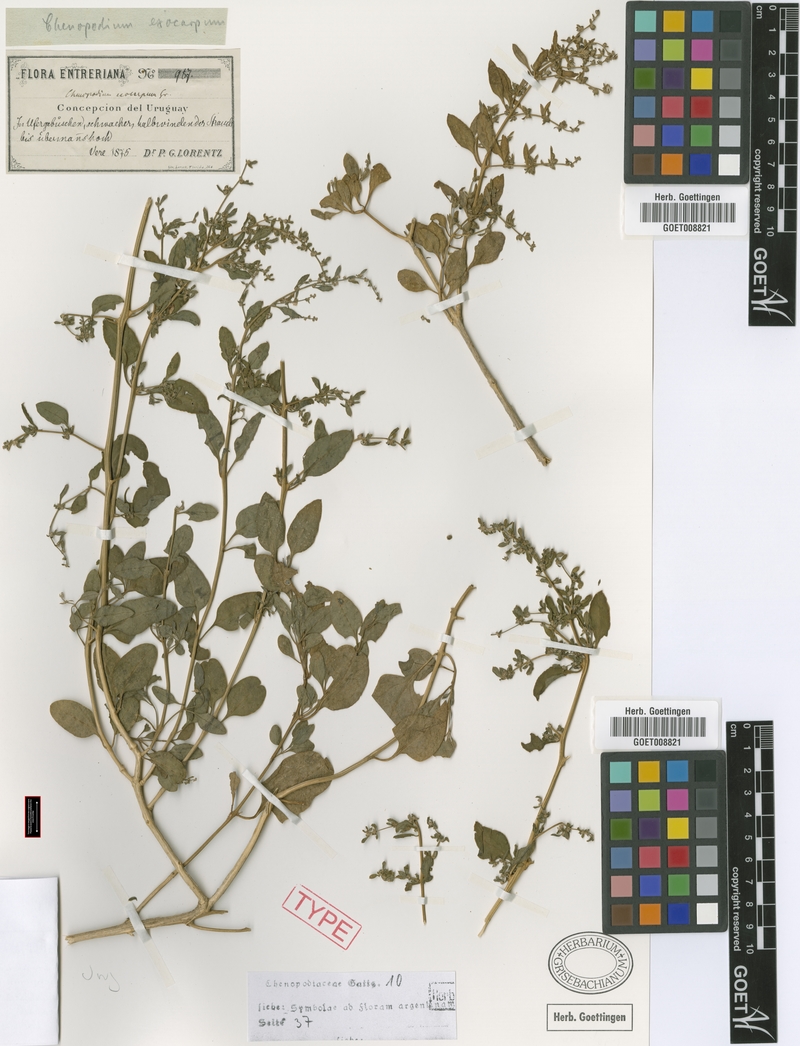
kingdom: Plantae
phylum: Tracheophyta
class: Magnoliopsida
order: Caryophyllales
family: Amaranthaceae
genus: Holmbergia
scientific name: Holmbergia tweedii
